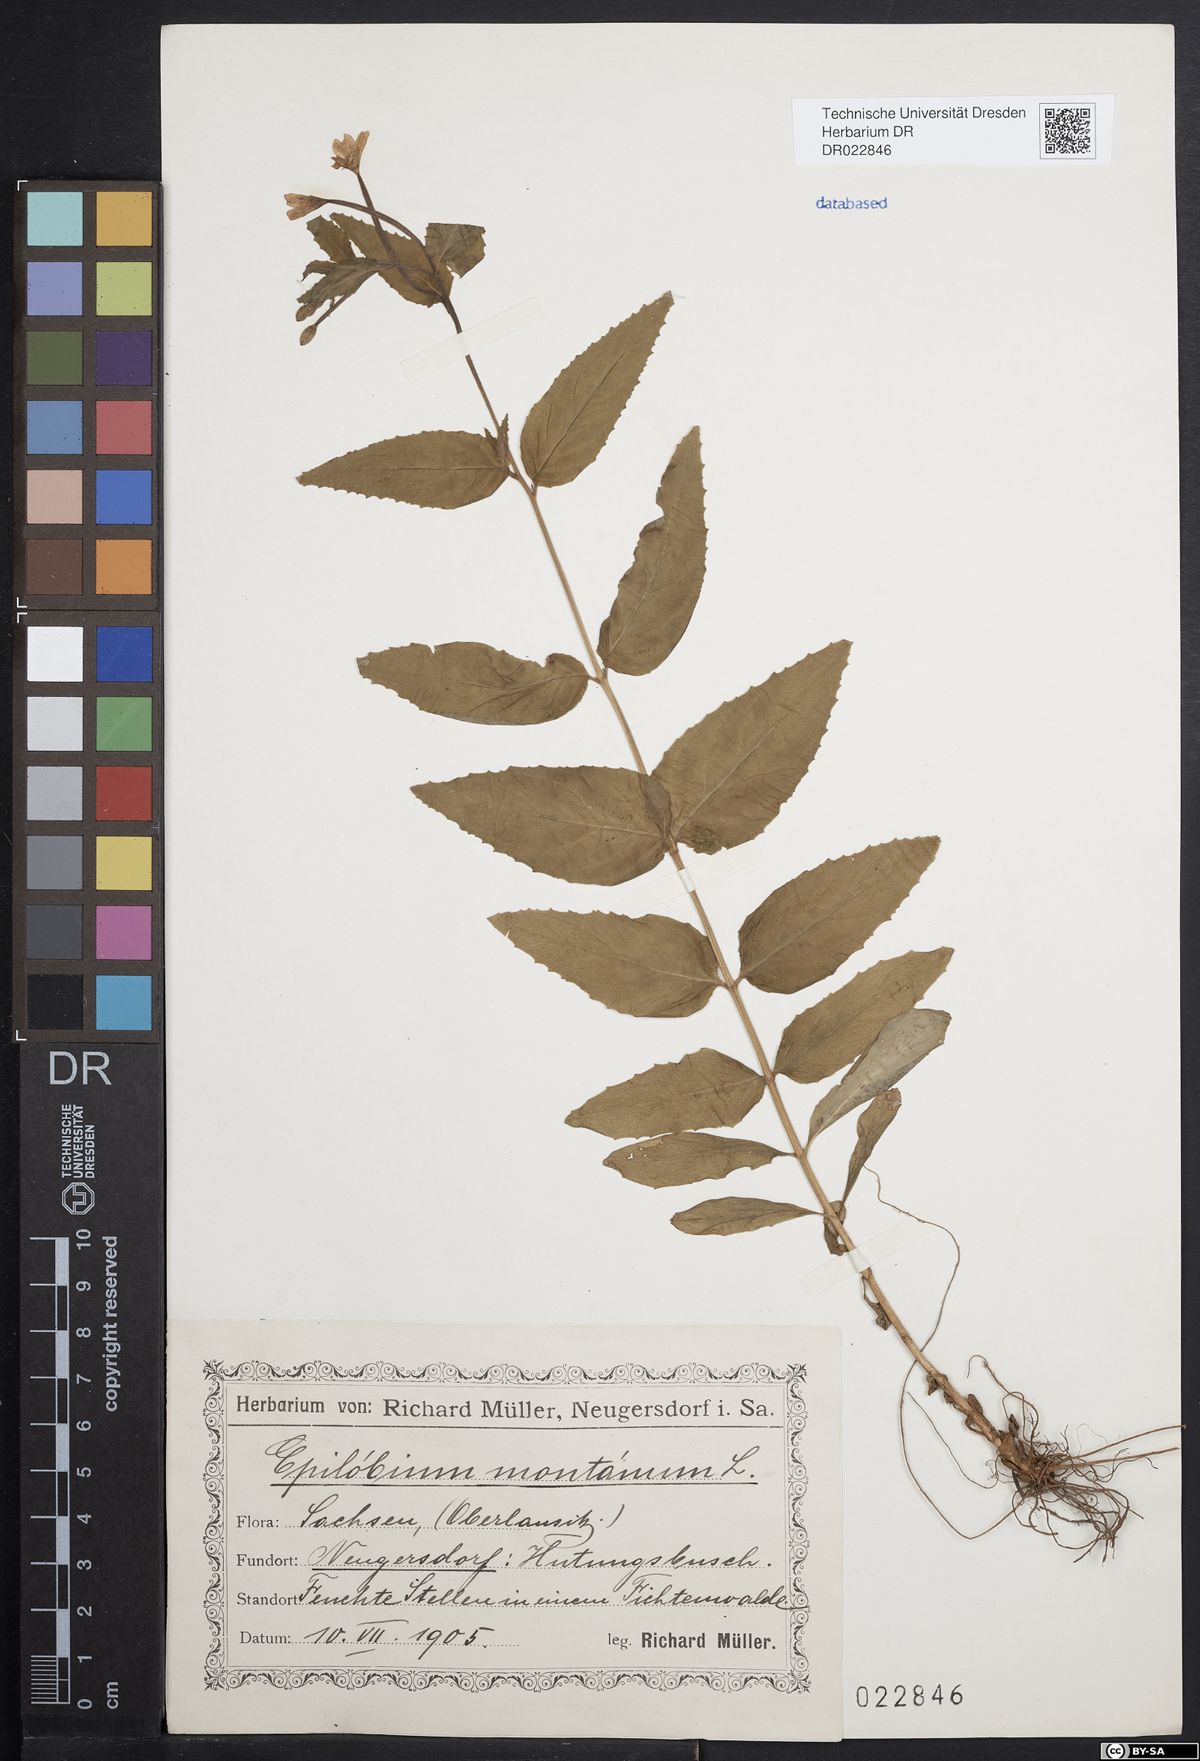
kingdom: Plantae
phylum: Tracheophyta
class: Magnoliopsida
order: Myrtales
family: Onagraceae
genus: Epilobium
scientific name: Epilobium montanum
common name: Broad-leaved willowherb
